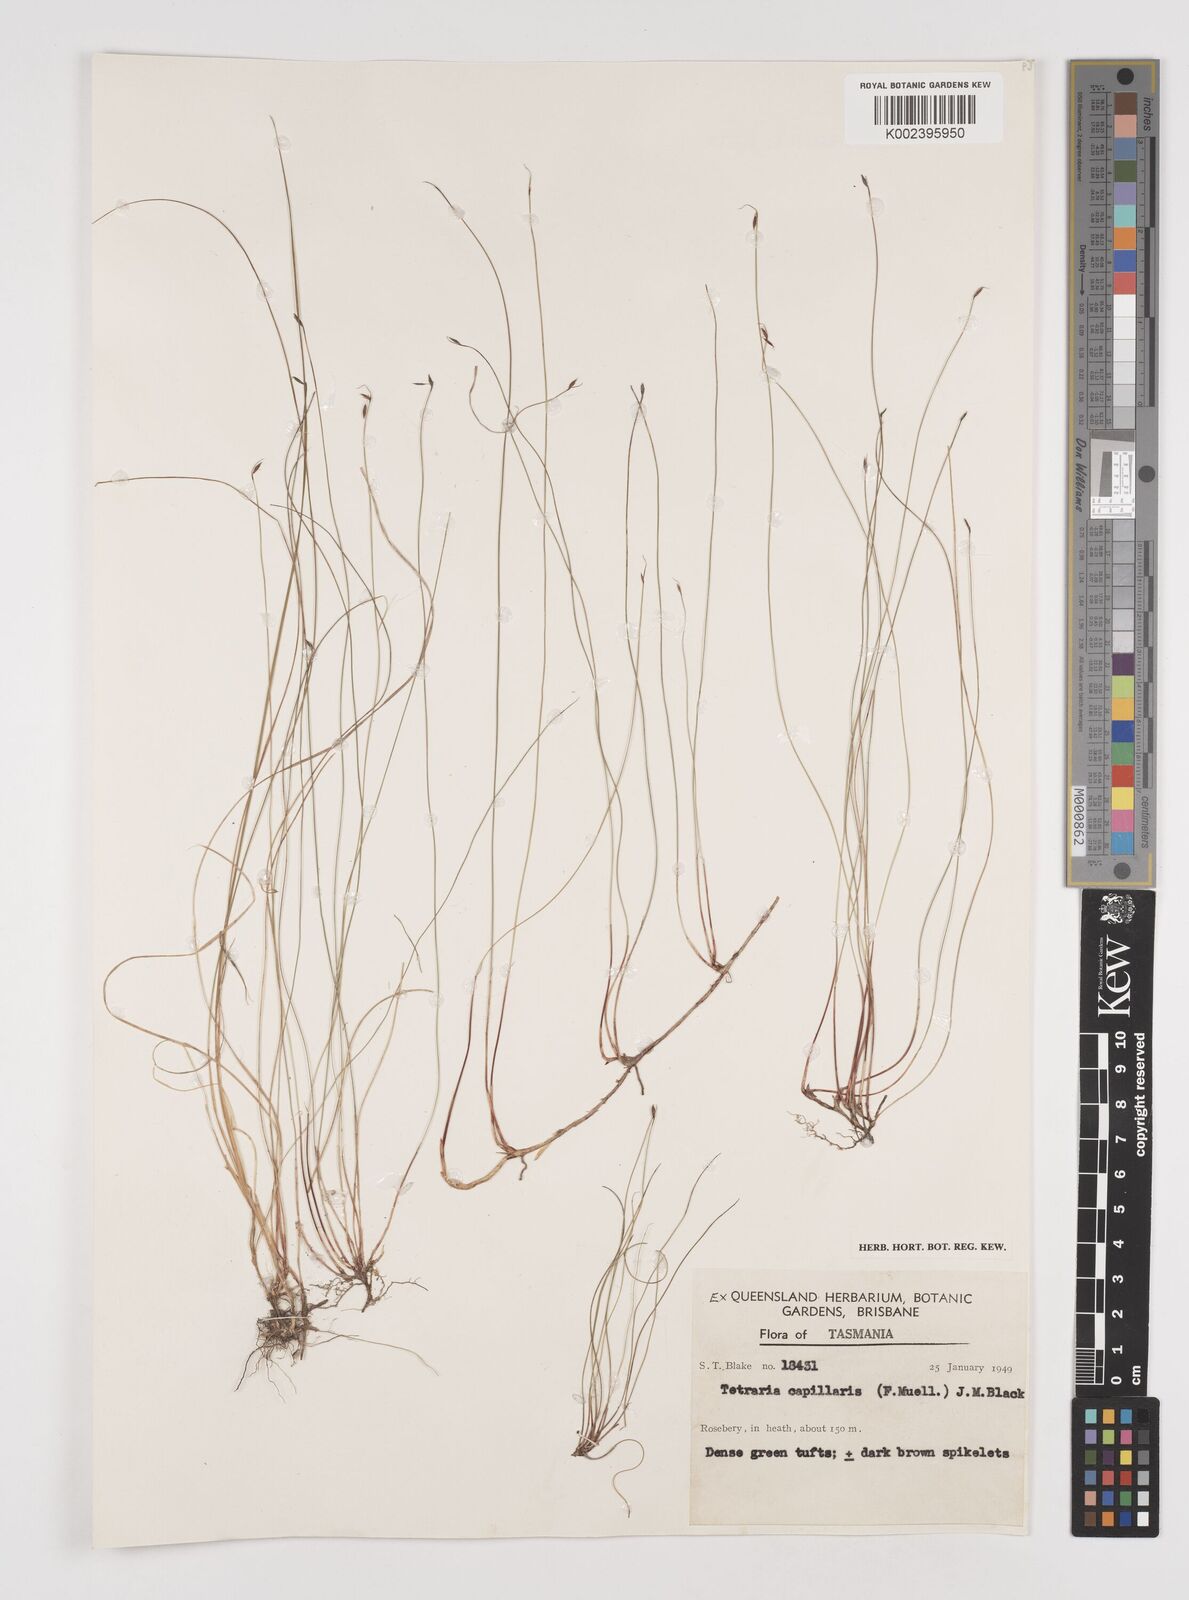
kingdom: Plantae
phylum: Tracheophyta
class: Liliopsida
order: Poales
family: Cyperaceae
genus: Tetraria
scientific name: Tetraria capillaris
